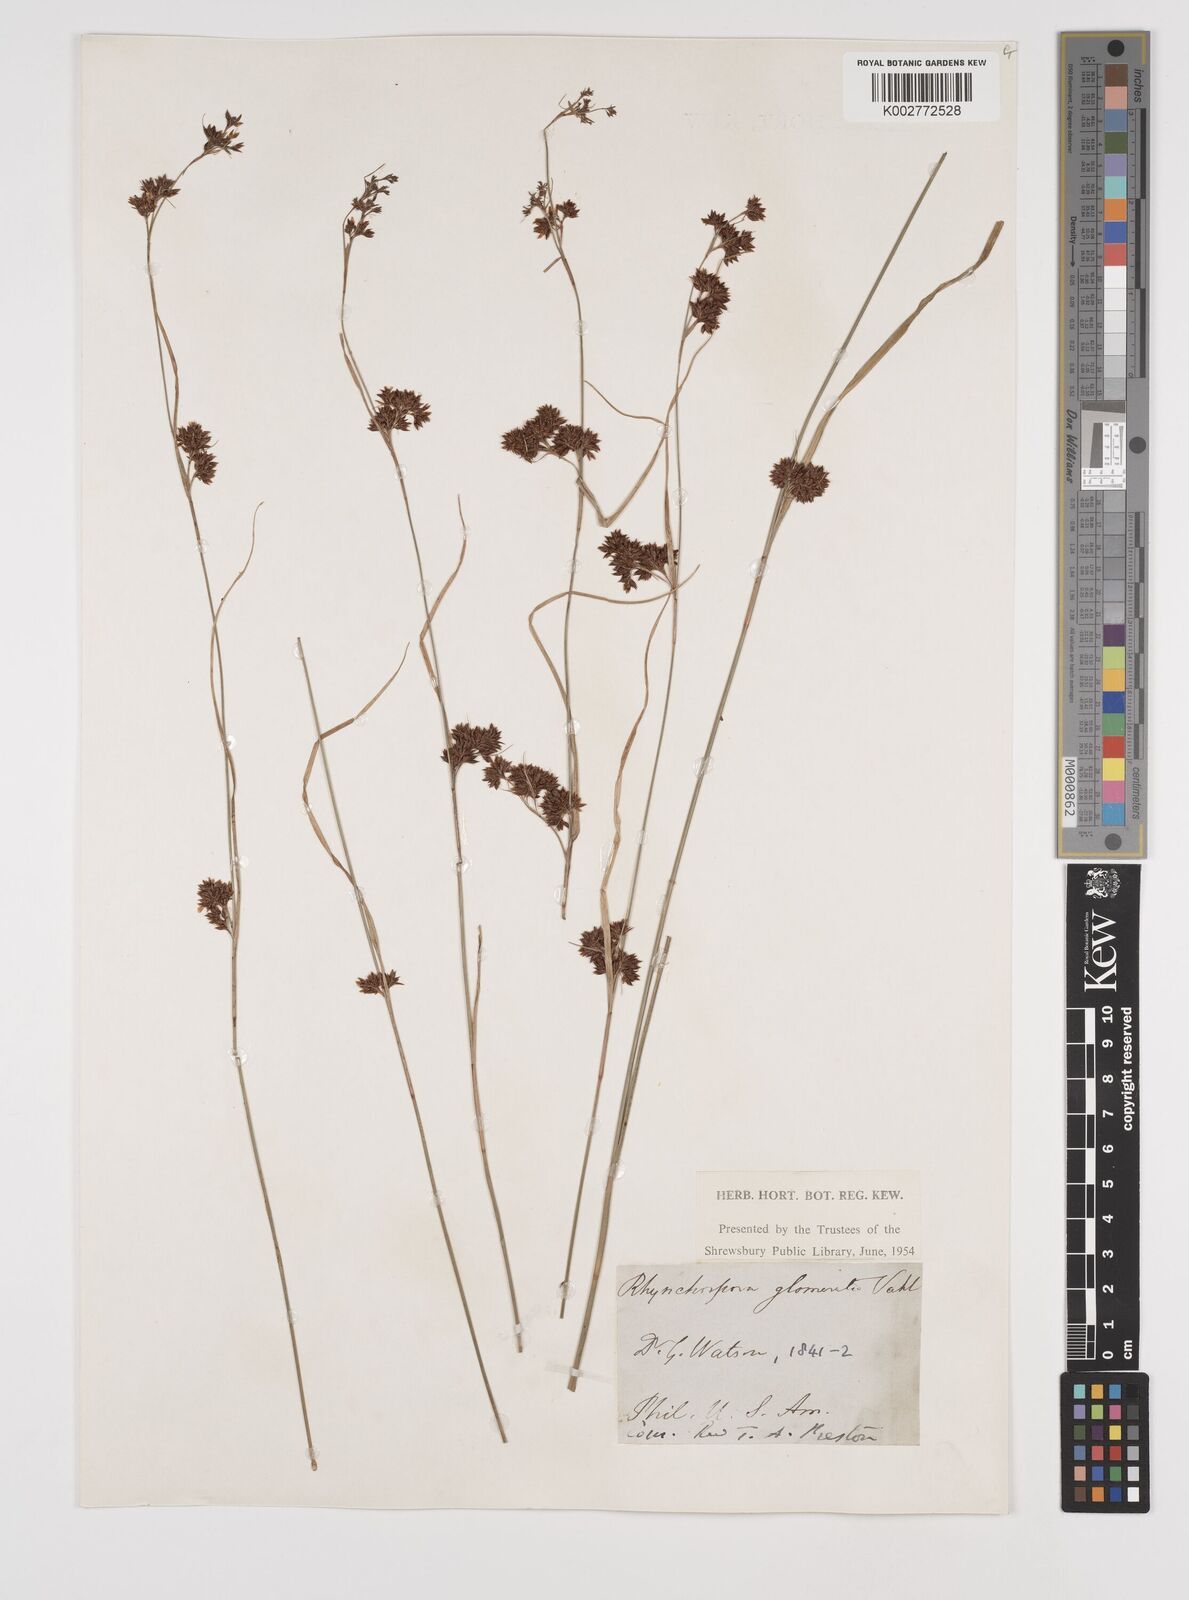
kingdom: Plantae
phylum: Tracheophyta
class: Liliopsida
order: Poales
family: Cyperaceae
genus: Rhynchospora
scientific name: Rhynchospora glomerata
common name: Cluster beak sedge
